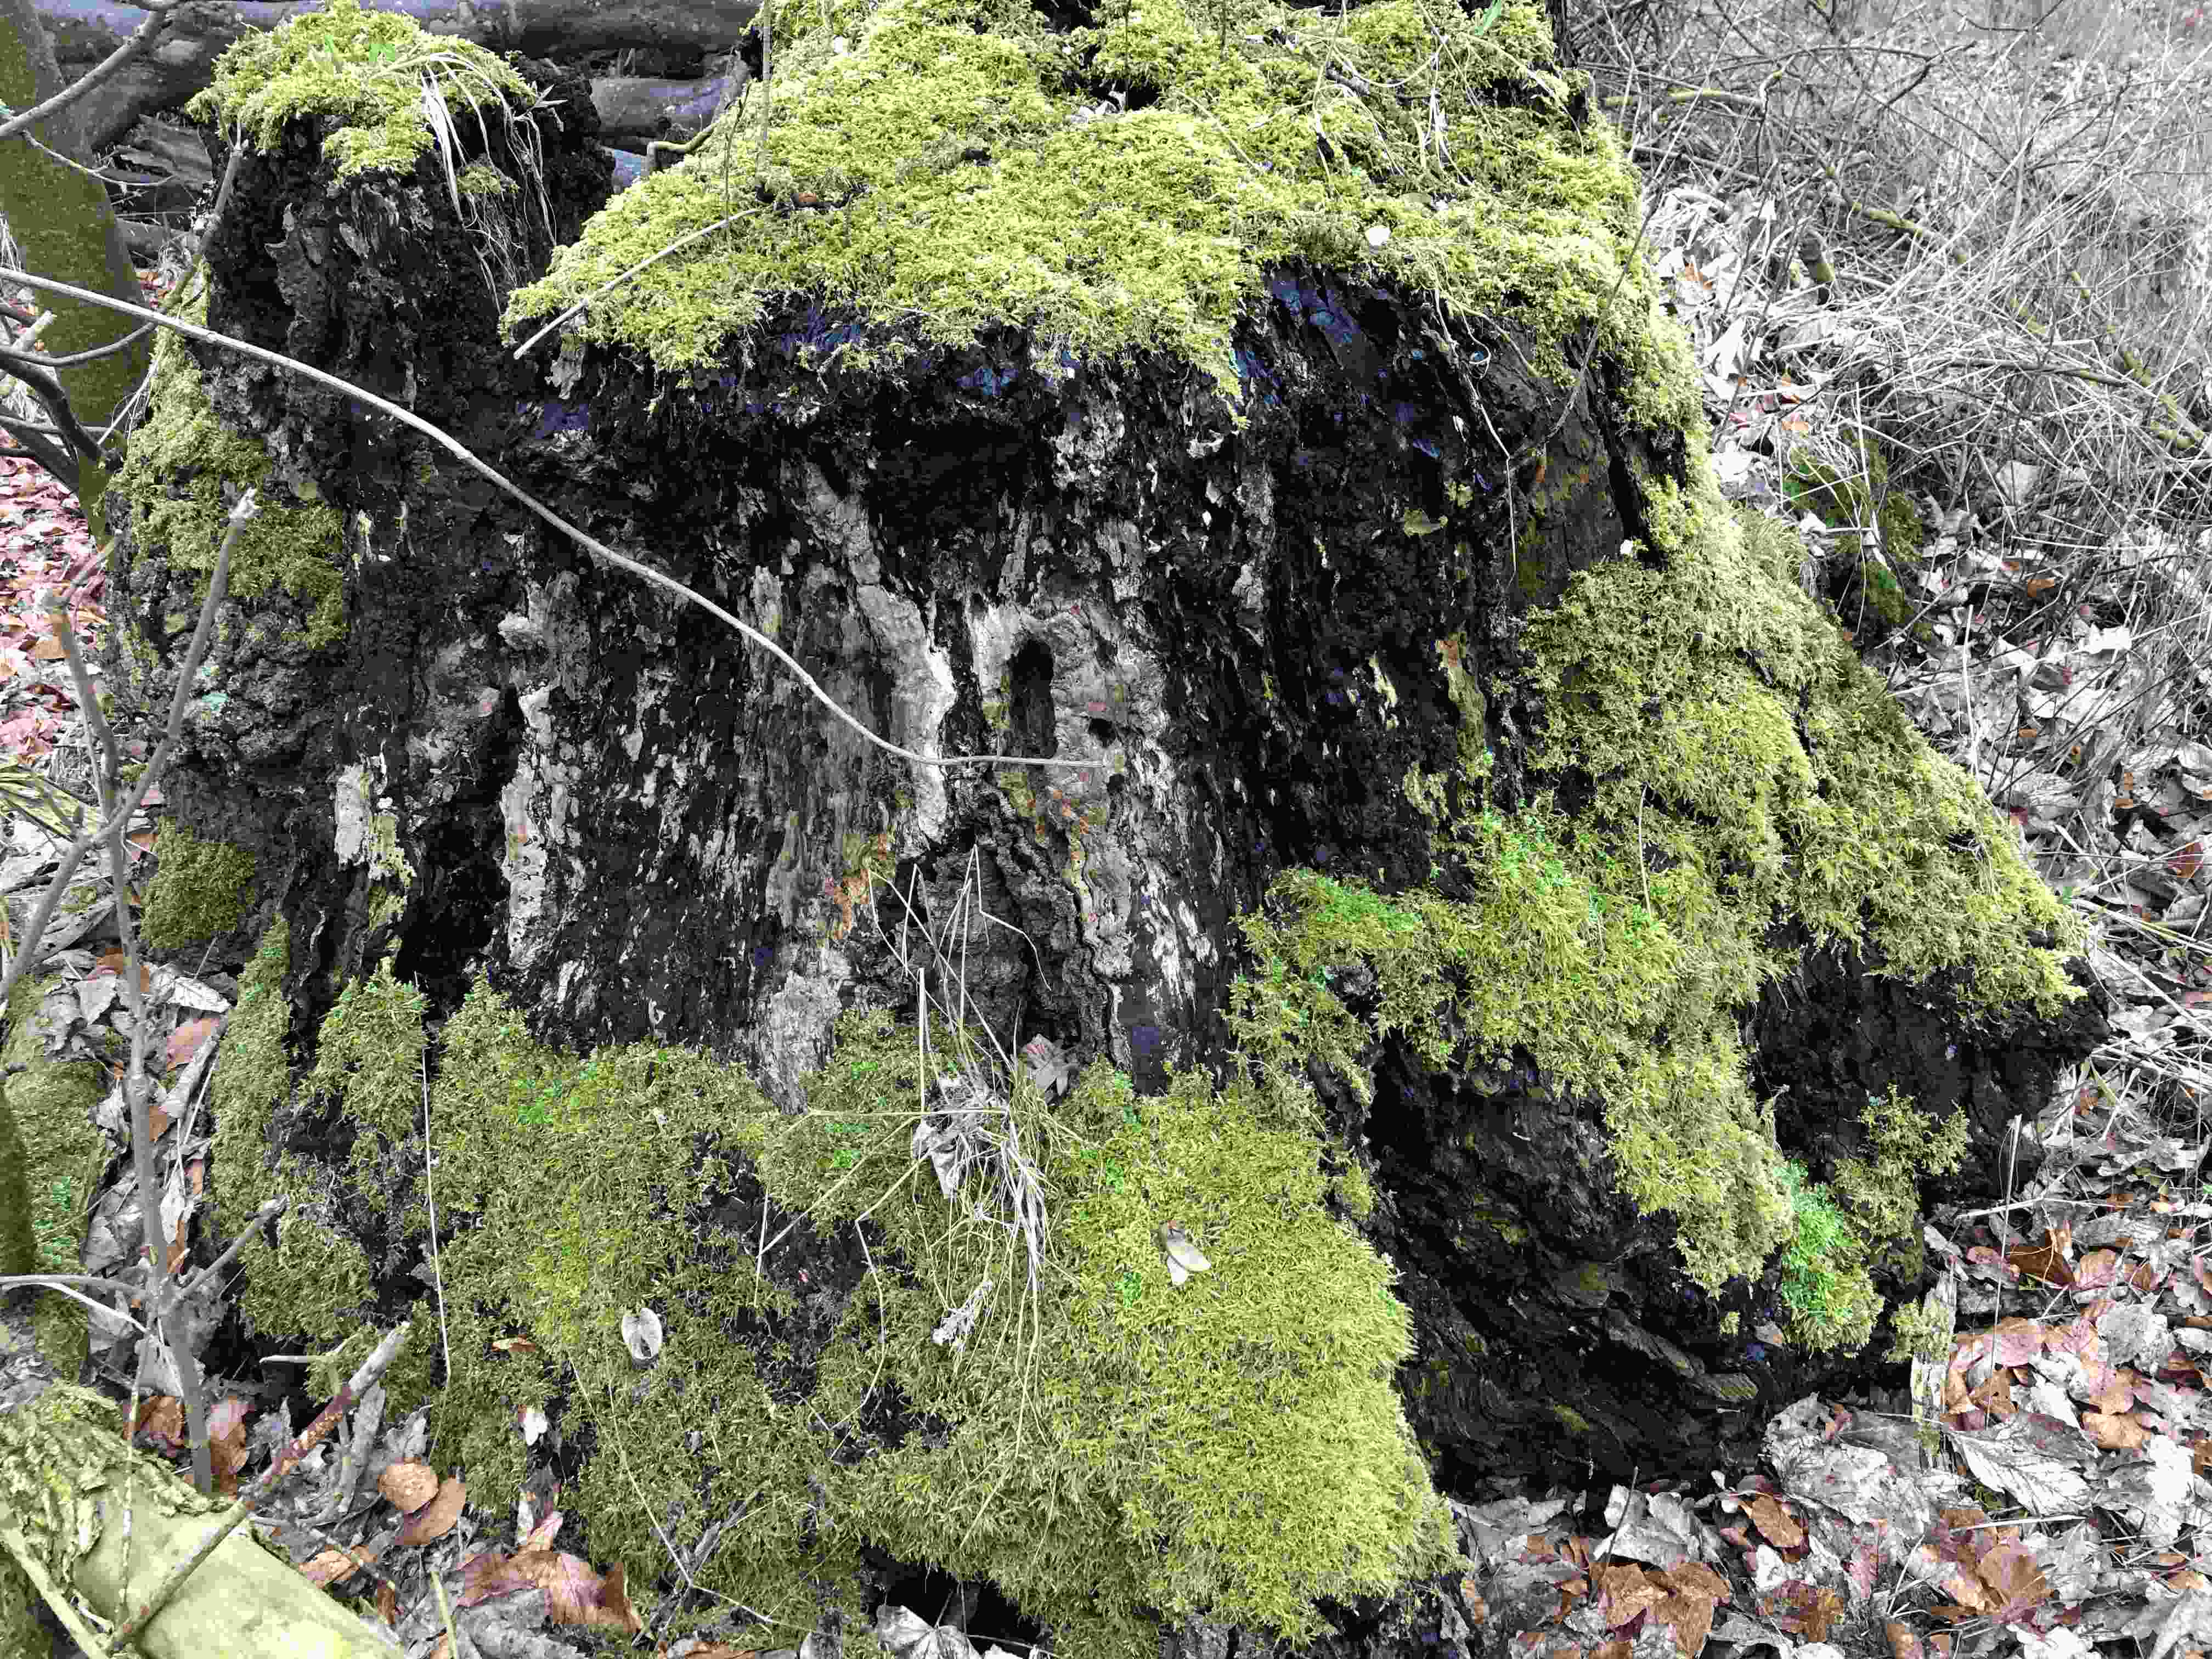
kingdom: Fungi
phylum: Ascomycota
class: Sordariomycetes
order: Xylariales
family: Xylariaceae
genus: Kretzschmaria
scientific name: Kretzschmaria deusta
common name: stor kulsvamp
